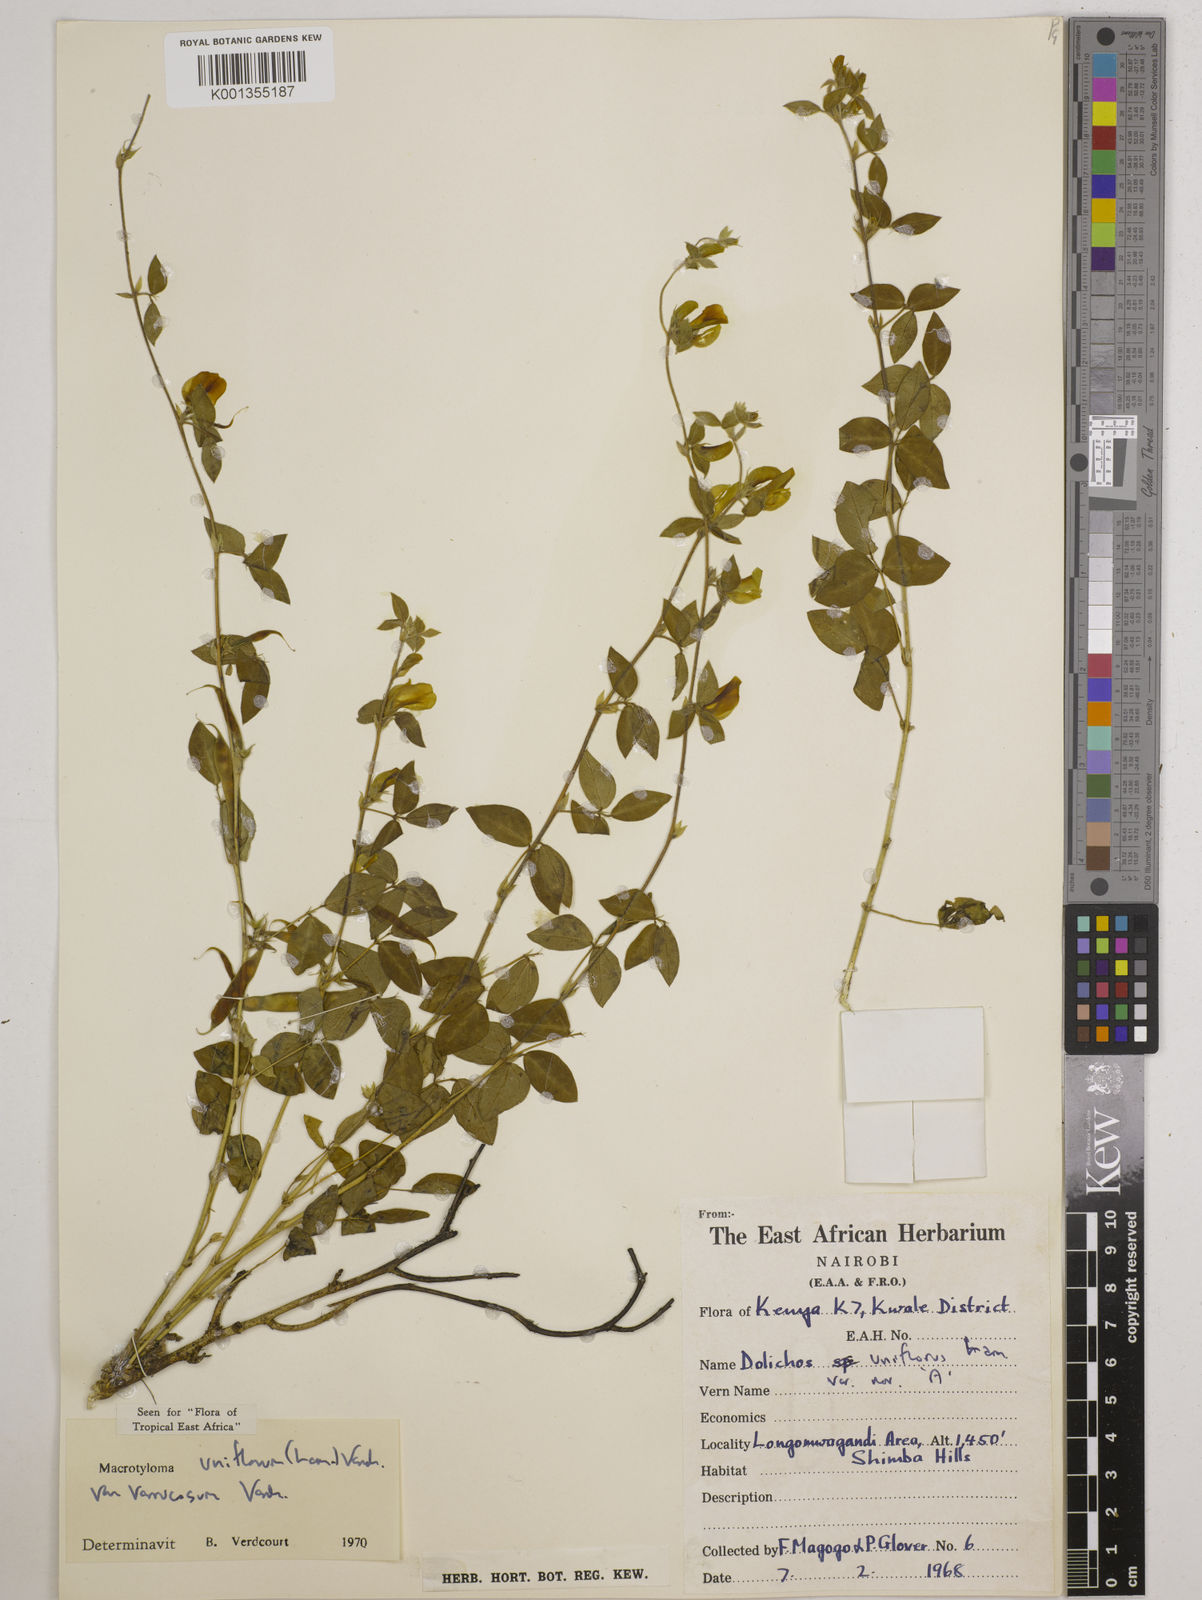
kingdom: Plantae
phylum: Tracheophyta
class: Magnoliopsida
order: Fabales
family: Fabaceae
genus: Macrotyloma
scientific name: Macrotyloma
